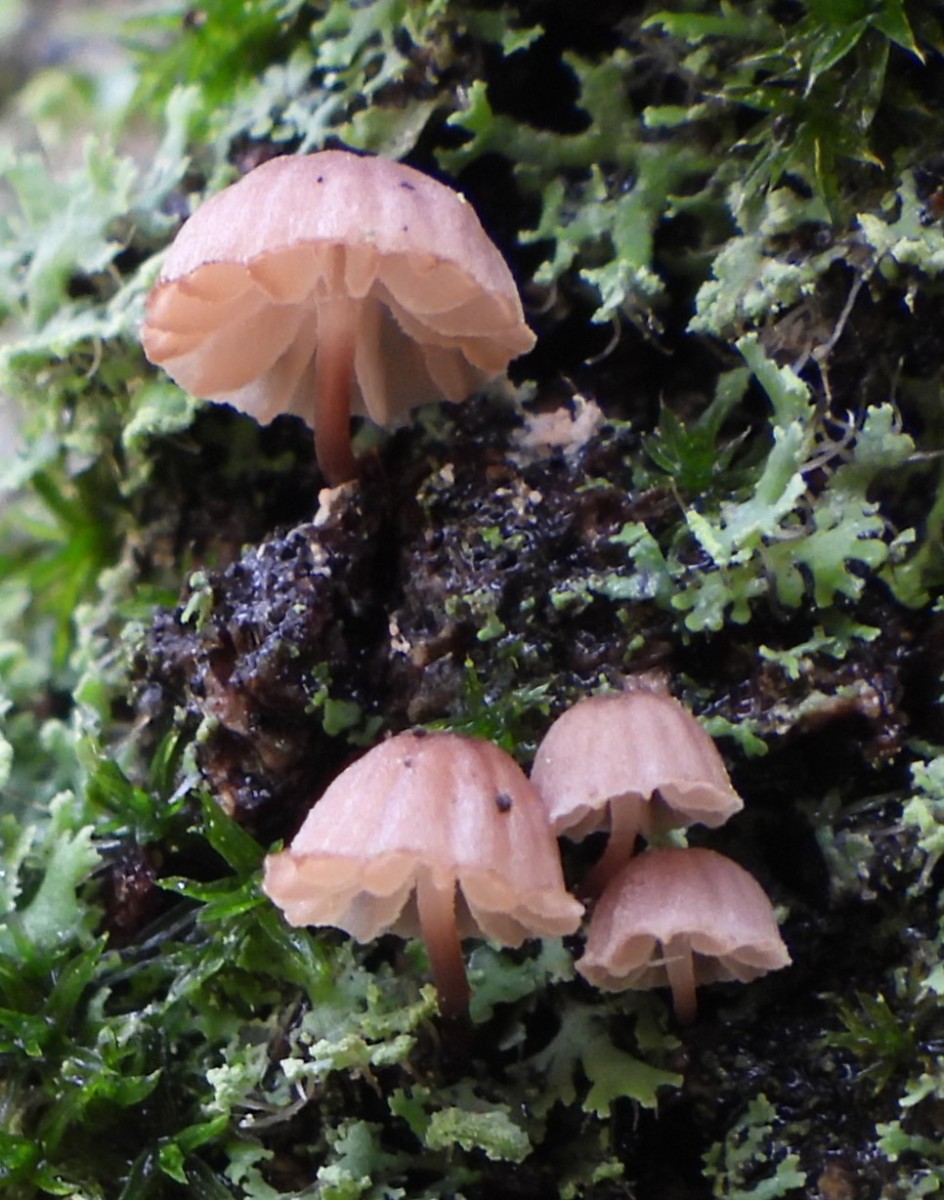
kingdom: Fungi
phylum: Basidiomycota
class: Agaricomycetes
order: Agaricales
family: Mycenaceae
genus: Mycena
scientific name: Mycena meliigena
